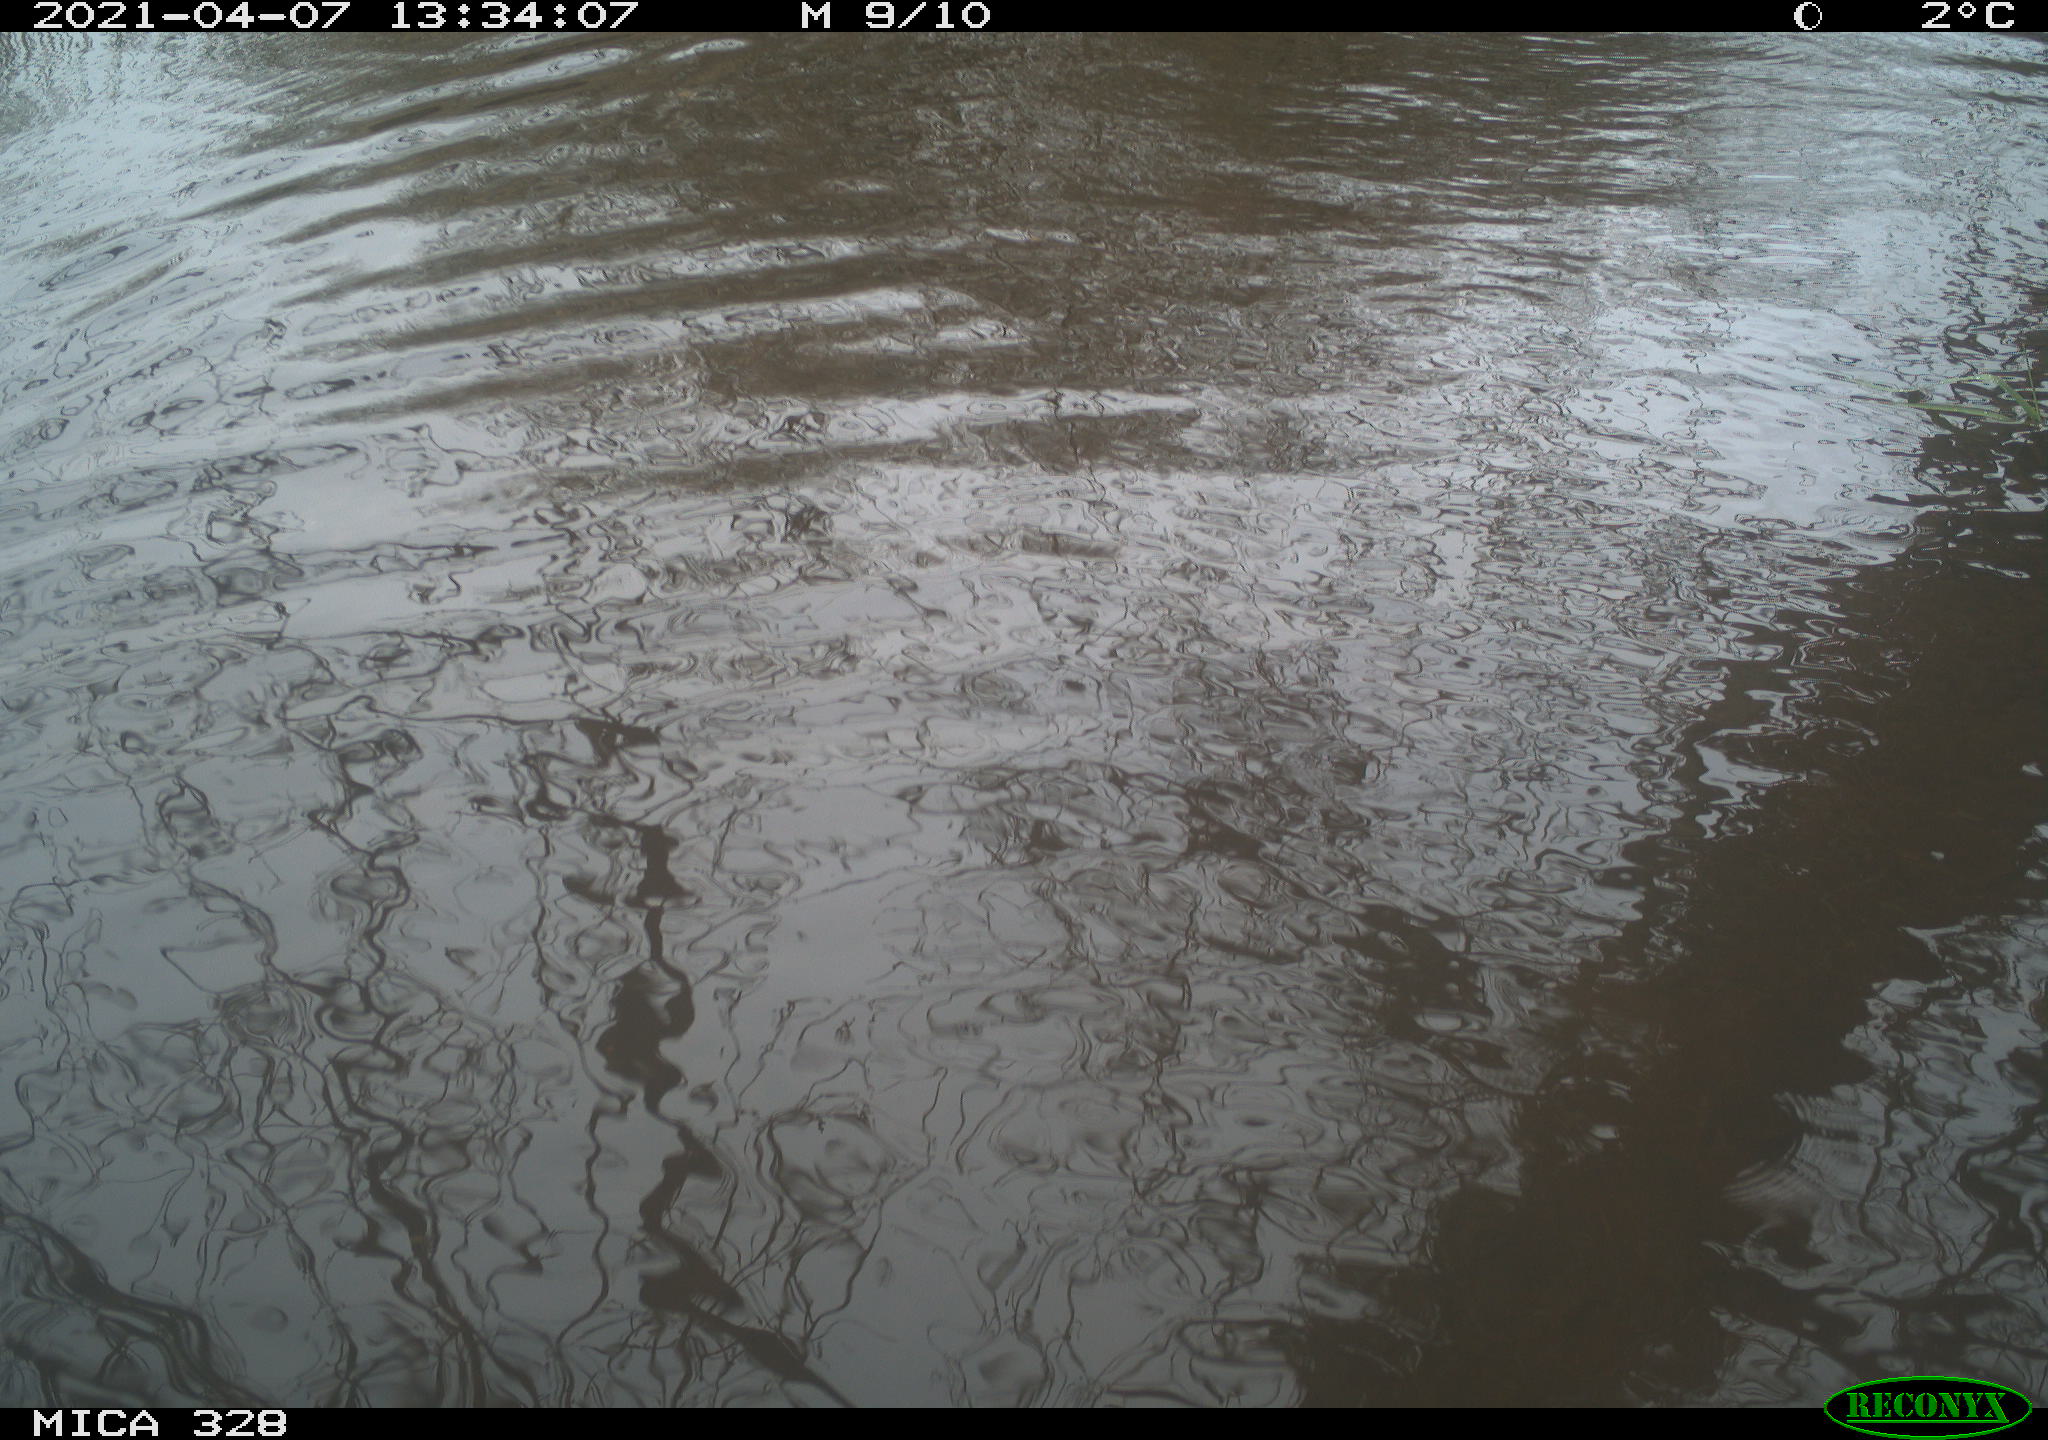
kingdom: Animalia
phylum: Chordata
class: Mammalia
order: Rodentia
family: Cricetidae
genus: Ondatra
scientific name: Ondatra zibethicus
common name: Muskrat
